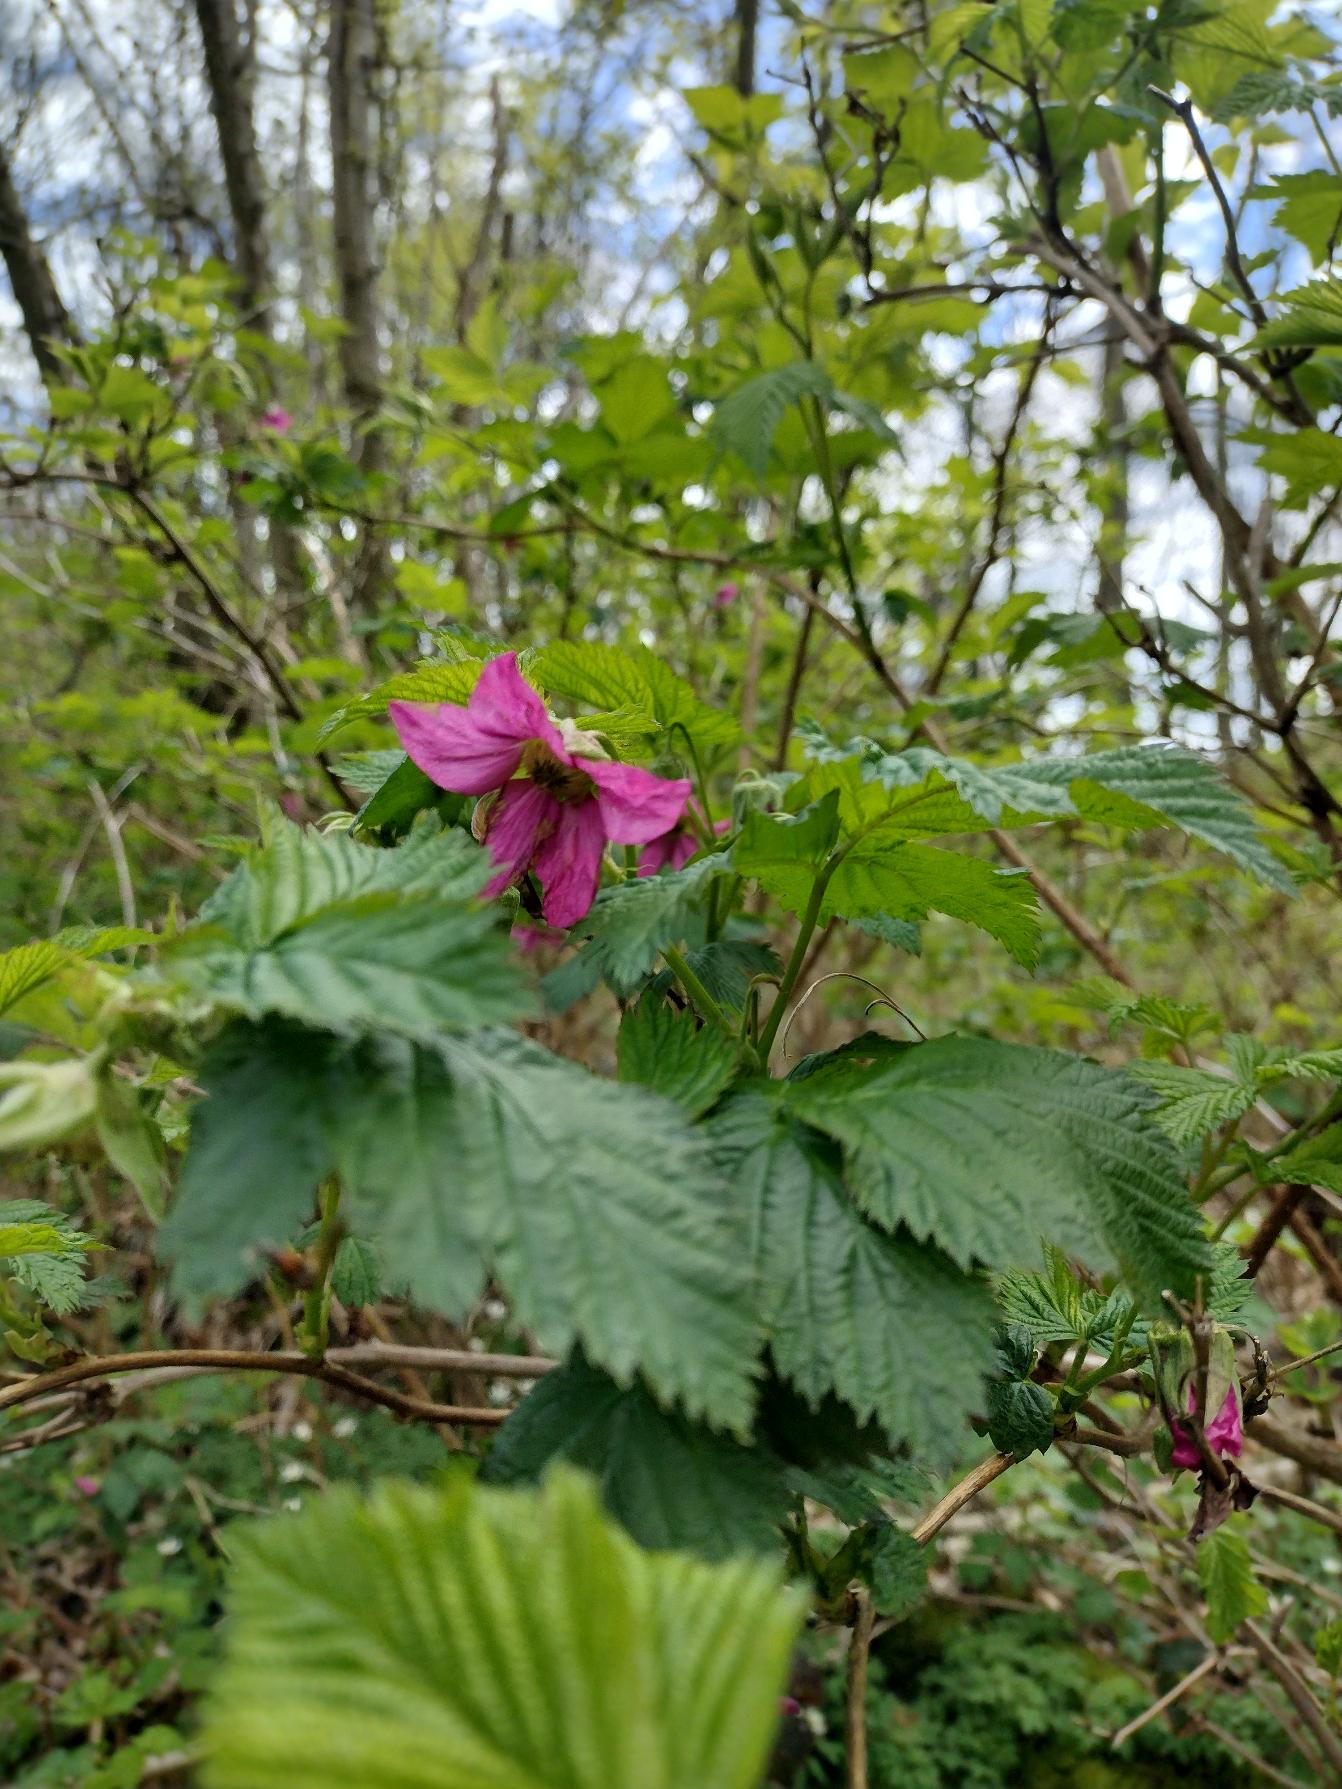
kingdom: Plantae
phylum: Tracheophyta
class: Magnoliopsida
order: Rosales
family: Rosaceae
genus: Rubus
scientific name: Rubus spectabilis
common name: Laksebær
